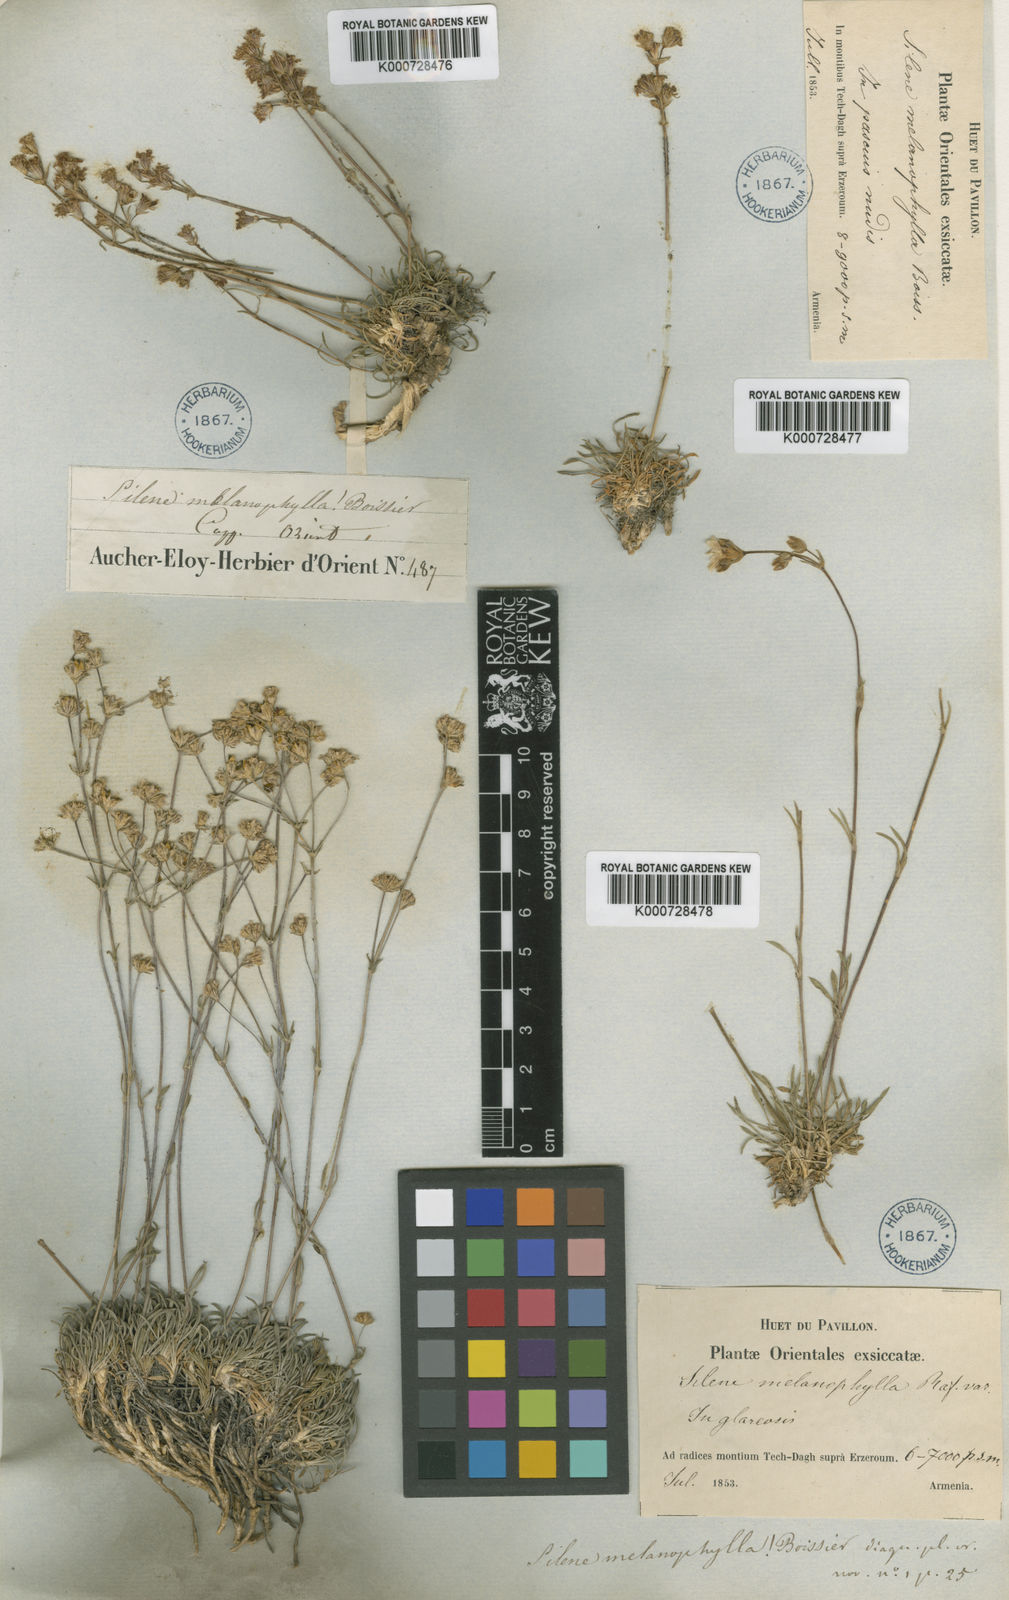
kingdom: Plantae
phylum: Tracheophyta
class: Magnoliopsida
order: Caryophyllales
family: Caryophyllaceae
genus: Silene
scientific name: Silene olympica
